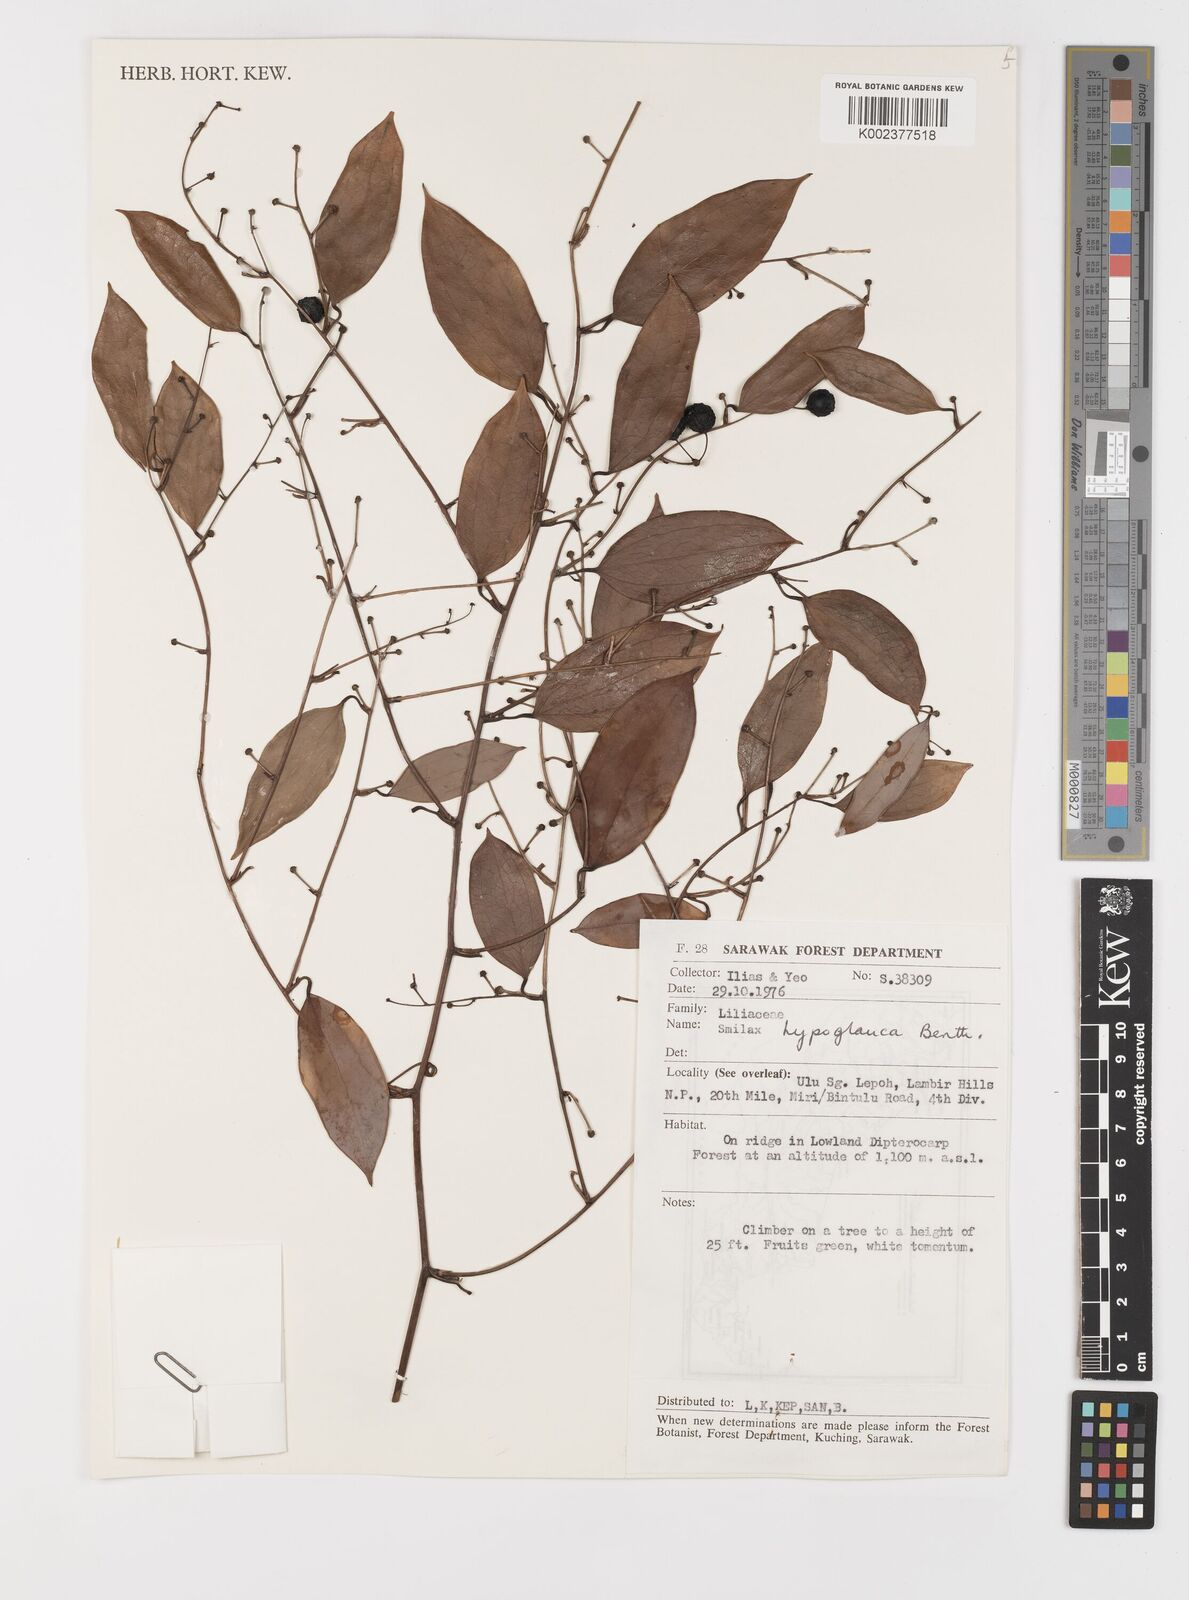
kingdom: Plantae
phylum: Tracheophyta
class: Liliopsida
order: Liliales
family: Smilacaceae
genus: Smilax
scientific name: Smilax hypoglauca
